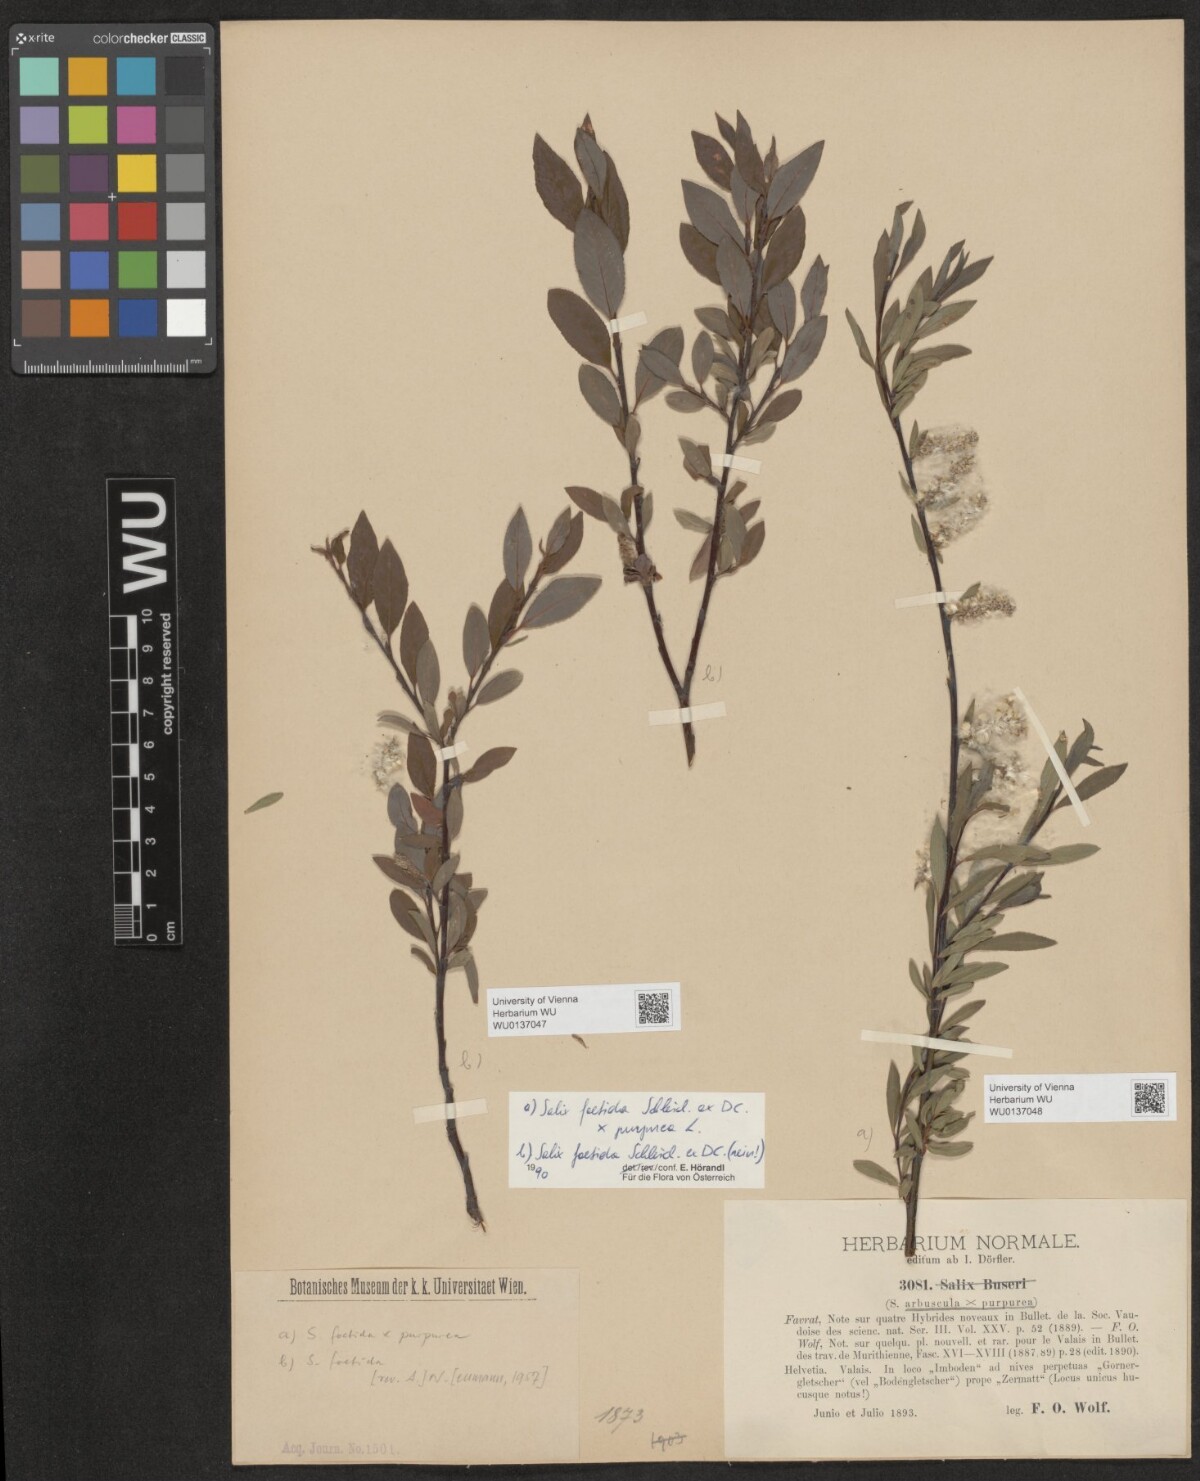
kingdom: Plantae
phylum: Tracheophyta
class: Magnoliopsida
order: Malpighiales
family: Salicaceae
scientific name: Salicaceae
